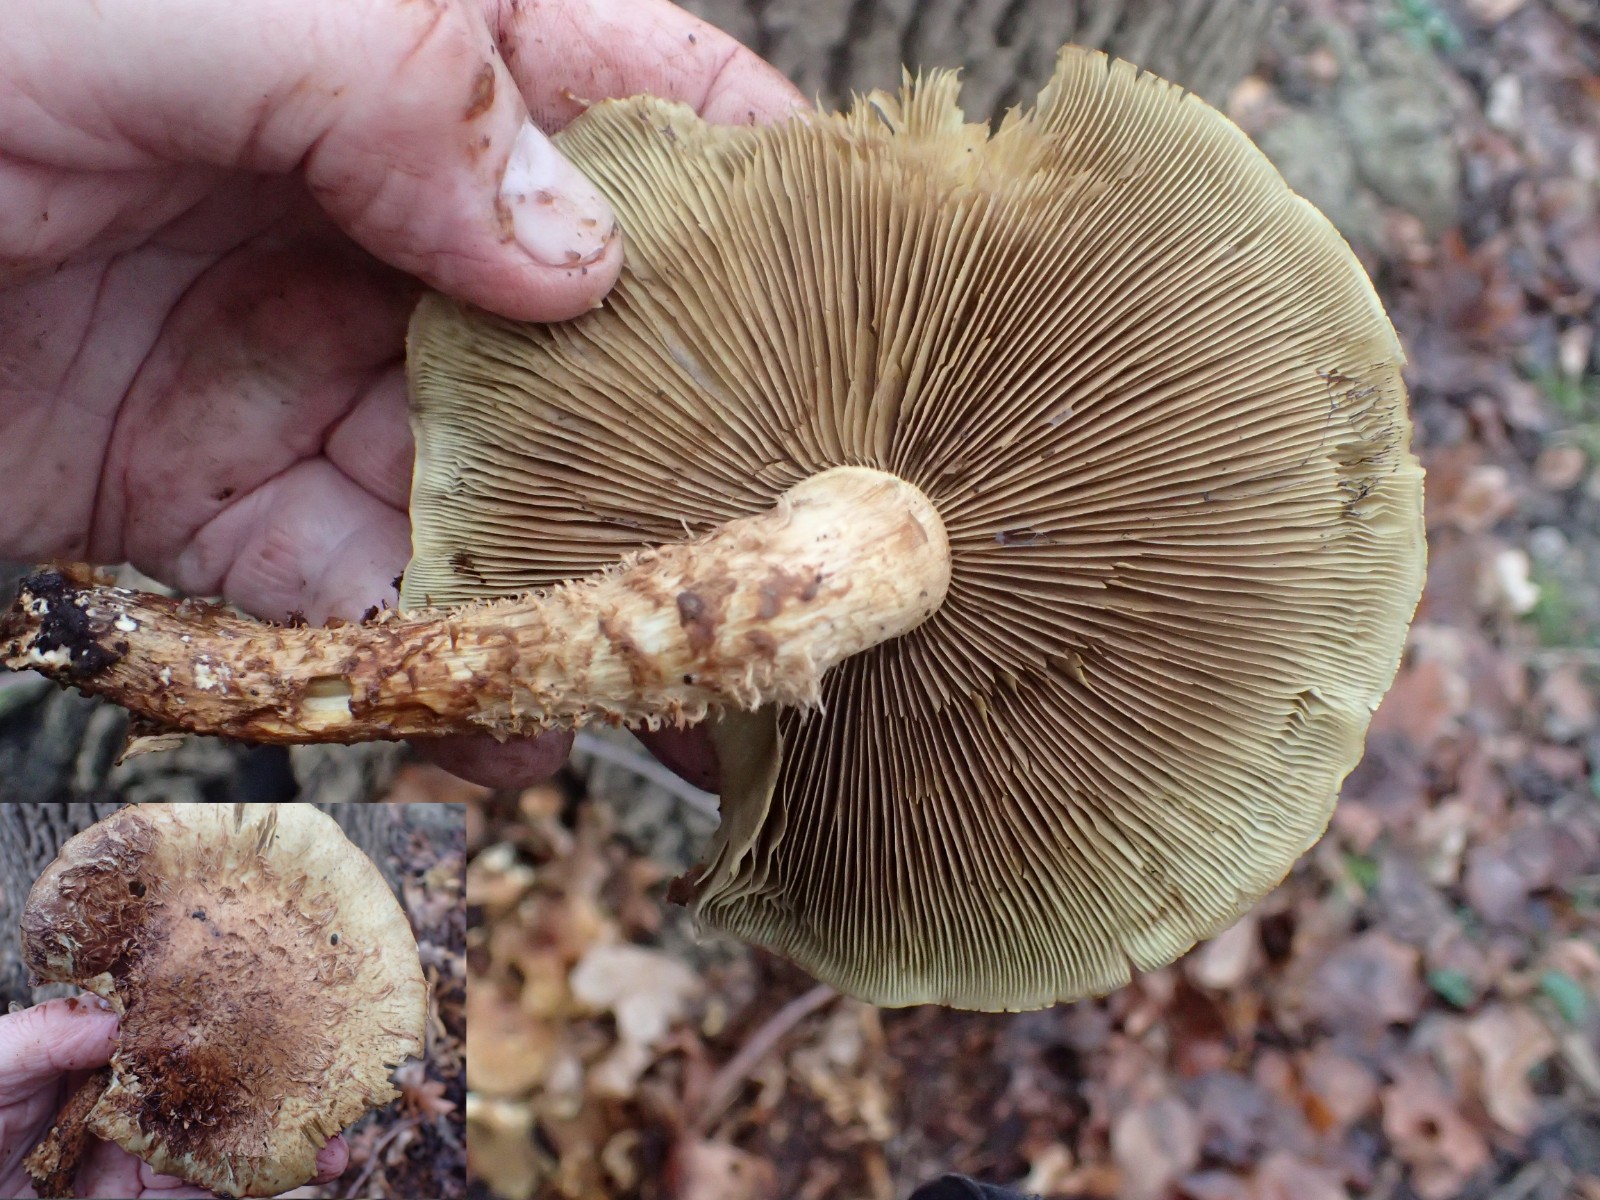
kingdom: Fungi
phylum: Basidiomycota
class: Agaricomycetes
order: Agaricales
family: Strophariaceae
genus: Pholiota
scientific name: Pholiota squarrosa
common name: krumskællet skælhat
